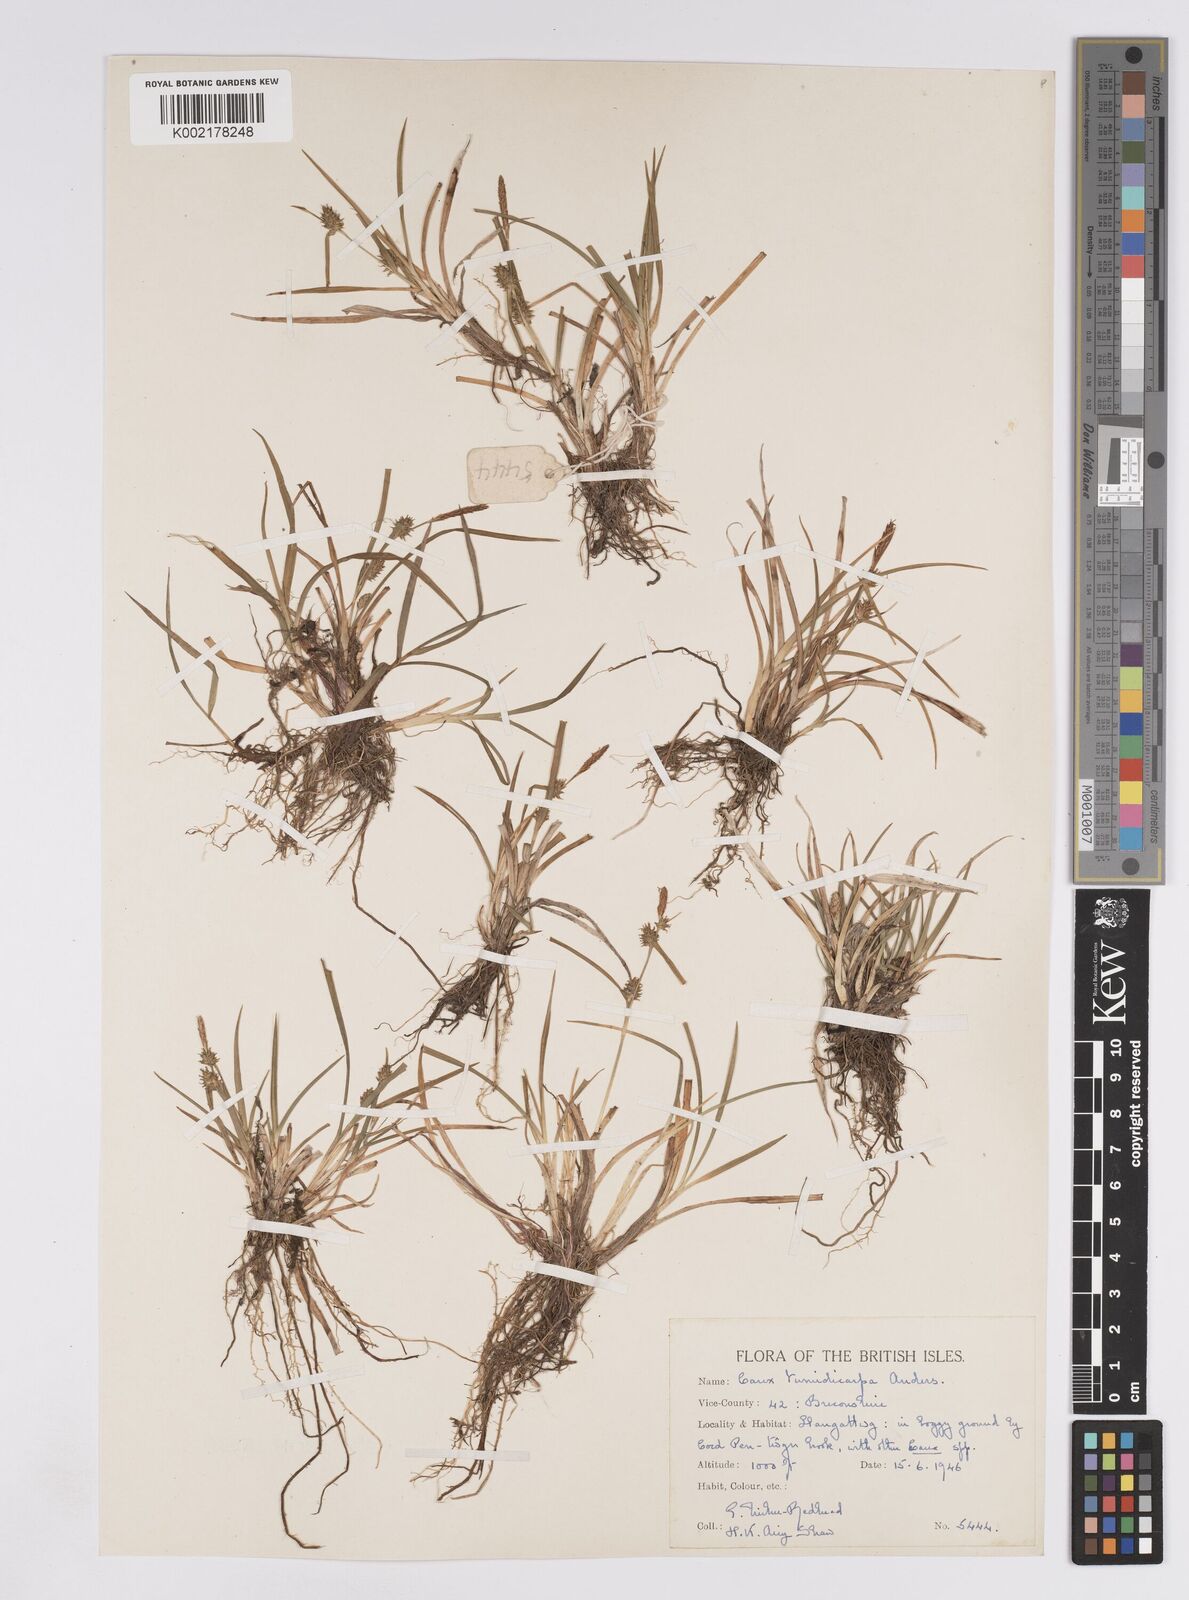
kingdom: Plantae
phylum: Tracheophyta
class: Liliopsida
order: Poales
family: Cyperaceae
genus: Carex
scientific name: Carex demissa
